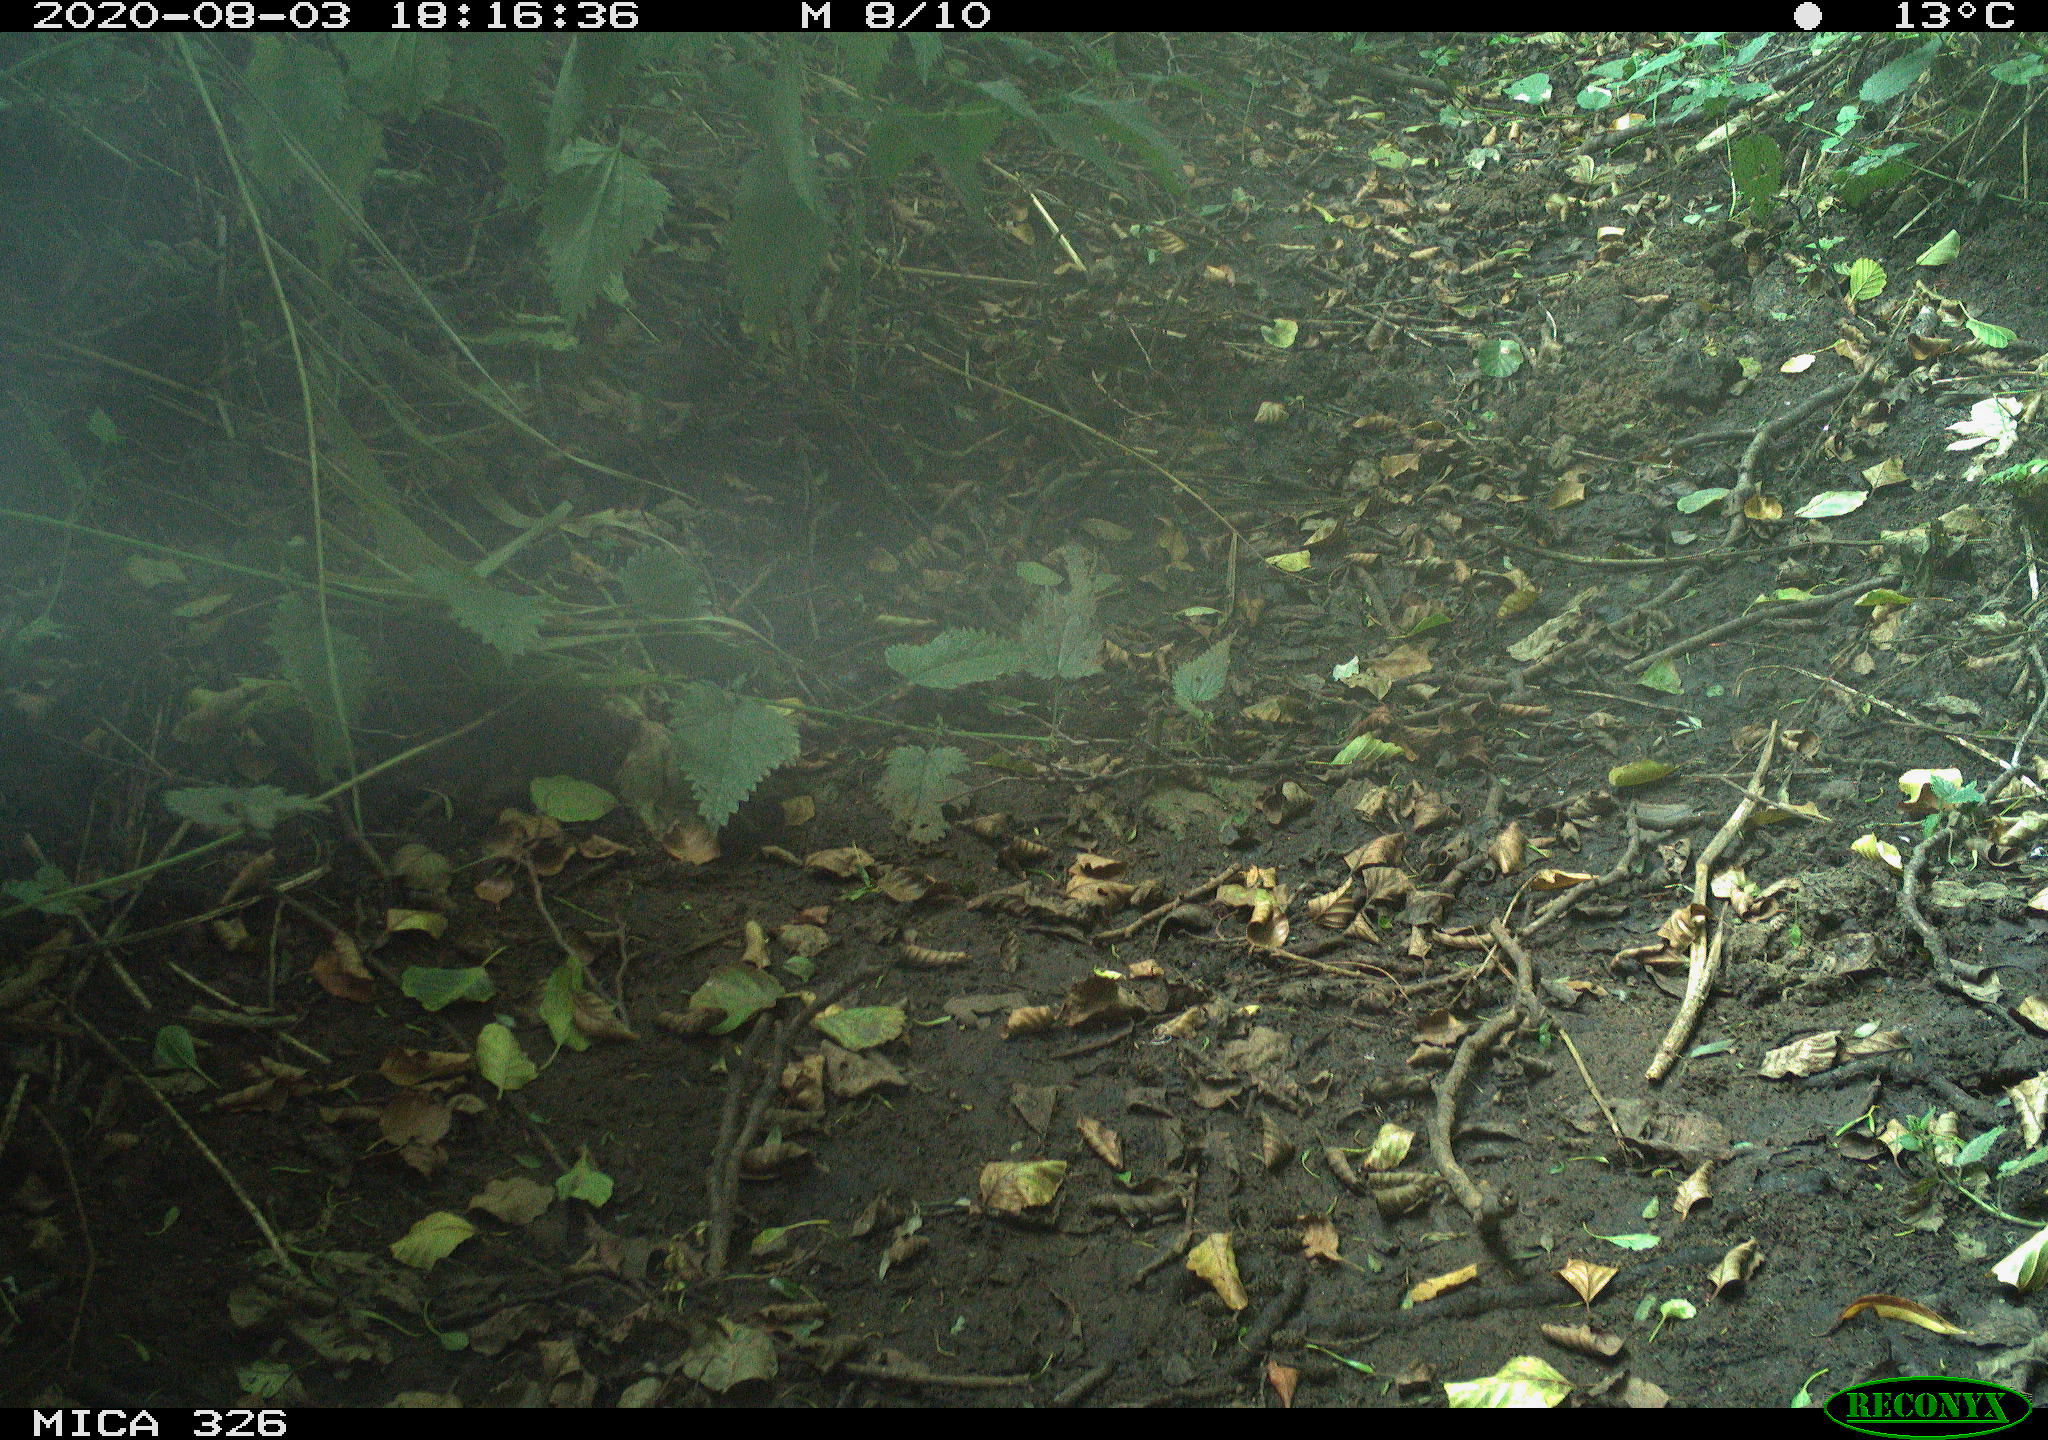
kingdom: Animalia
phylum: Chordata
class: Aves
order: Passeriformes
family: Muscicapidae
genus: Erithacus
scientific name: Erithacus rubecula
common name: European robin
